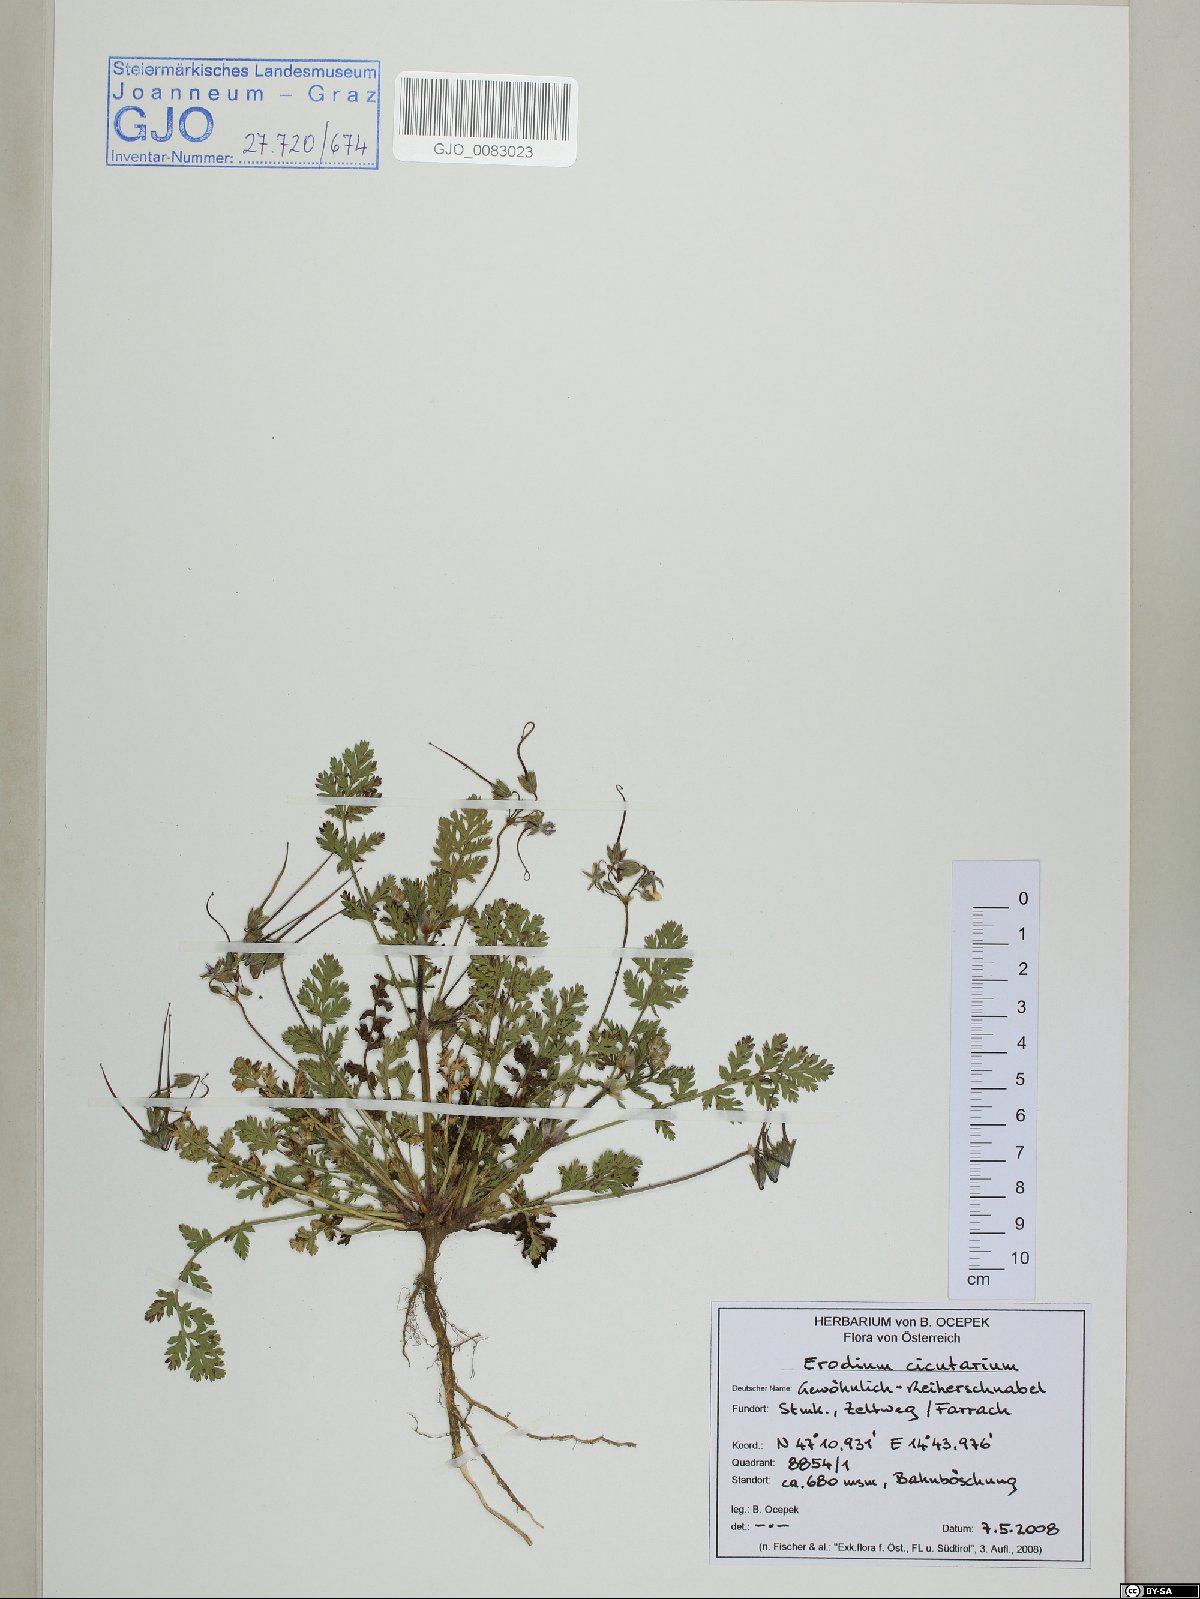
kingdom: Plantae
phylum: Tracheophyta
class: Magnoliopsida
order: Geraniales
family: Geraniaceae
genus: Erodium
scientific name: Erodium cicutarium
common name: Common stork's-bill
